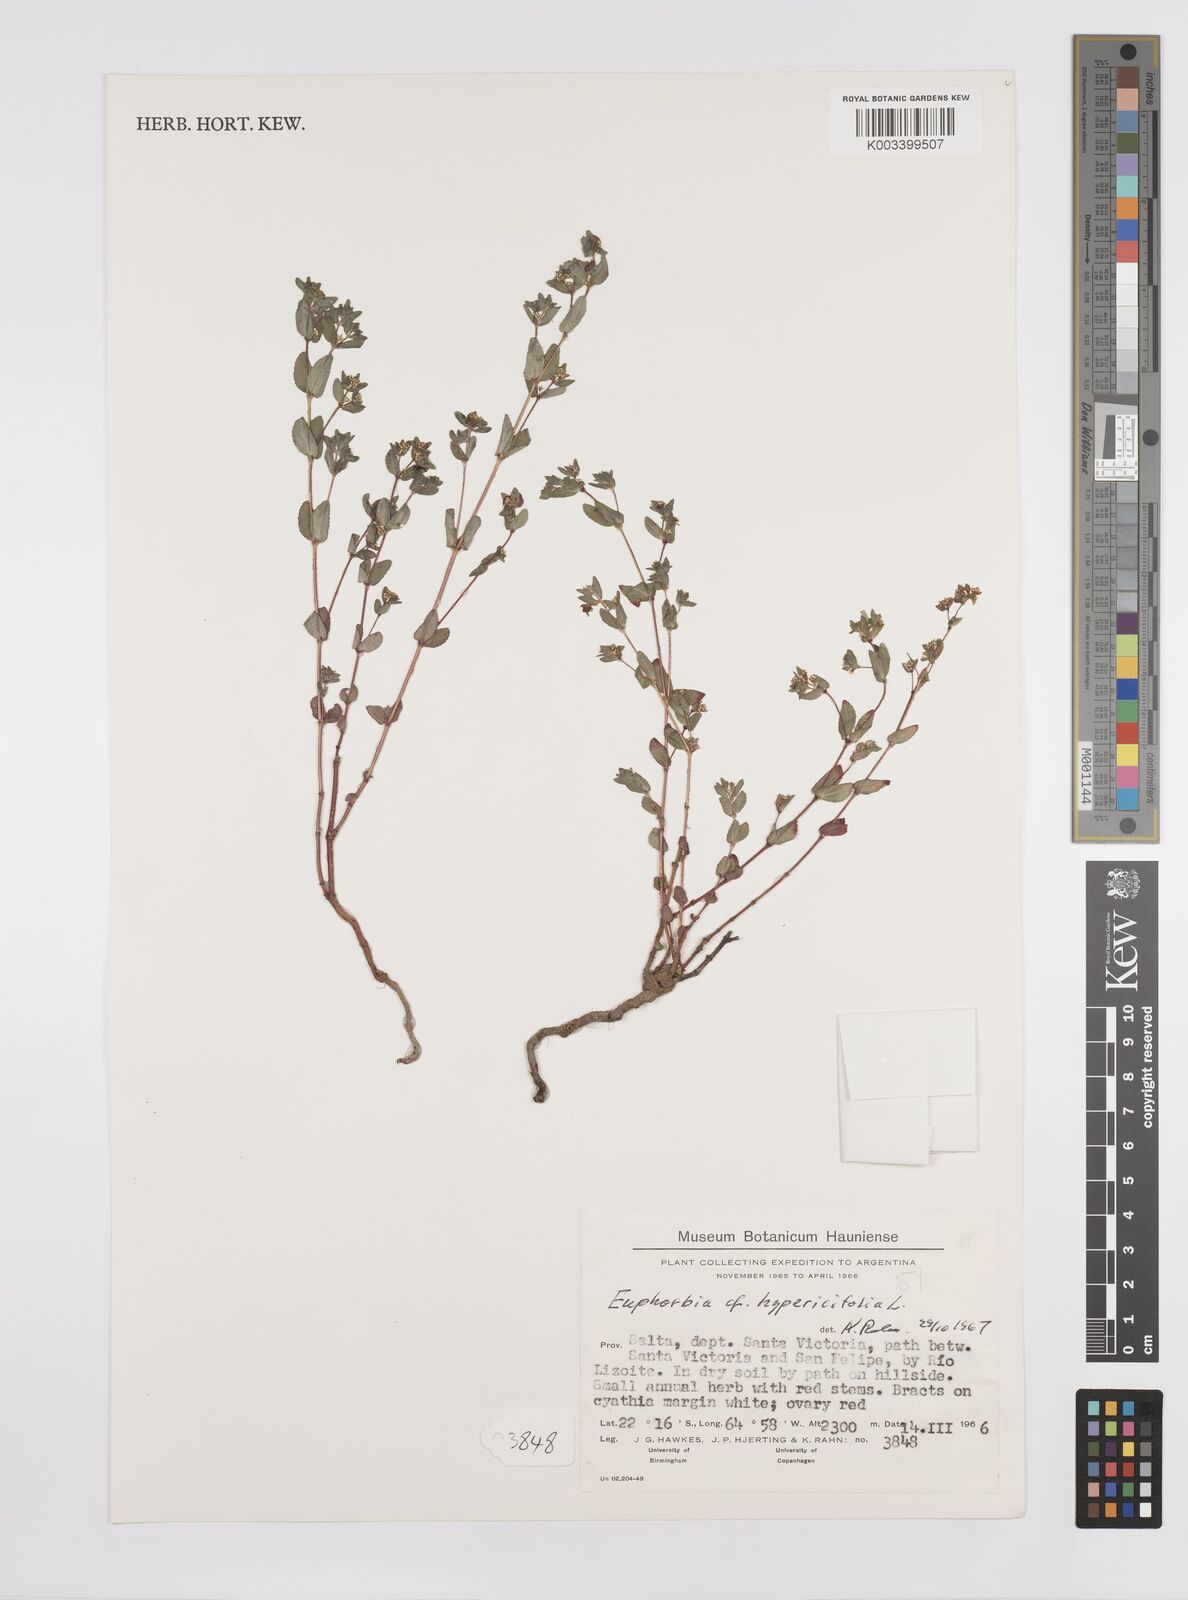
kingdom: Plantae
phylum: Tracheophyta
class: Magnoliopsida
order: Malpighiales
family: Euphorbiaceae
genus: Euphorbia
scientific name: Euphorbia hypericifolia
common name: Graceful sandmat
